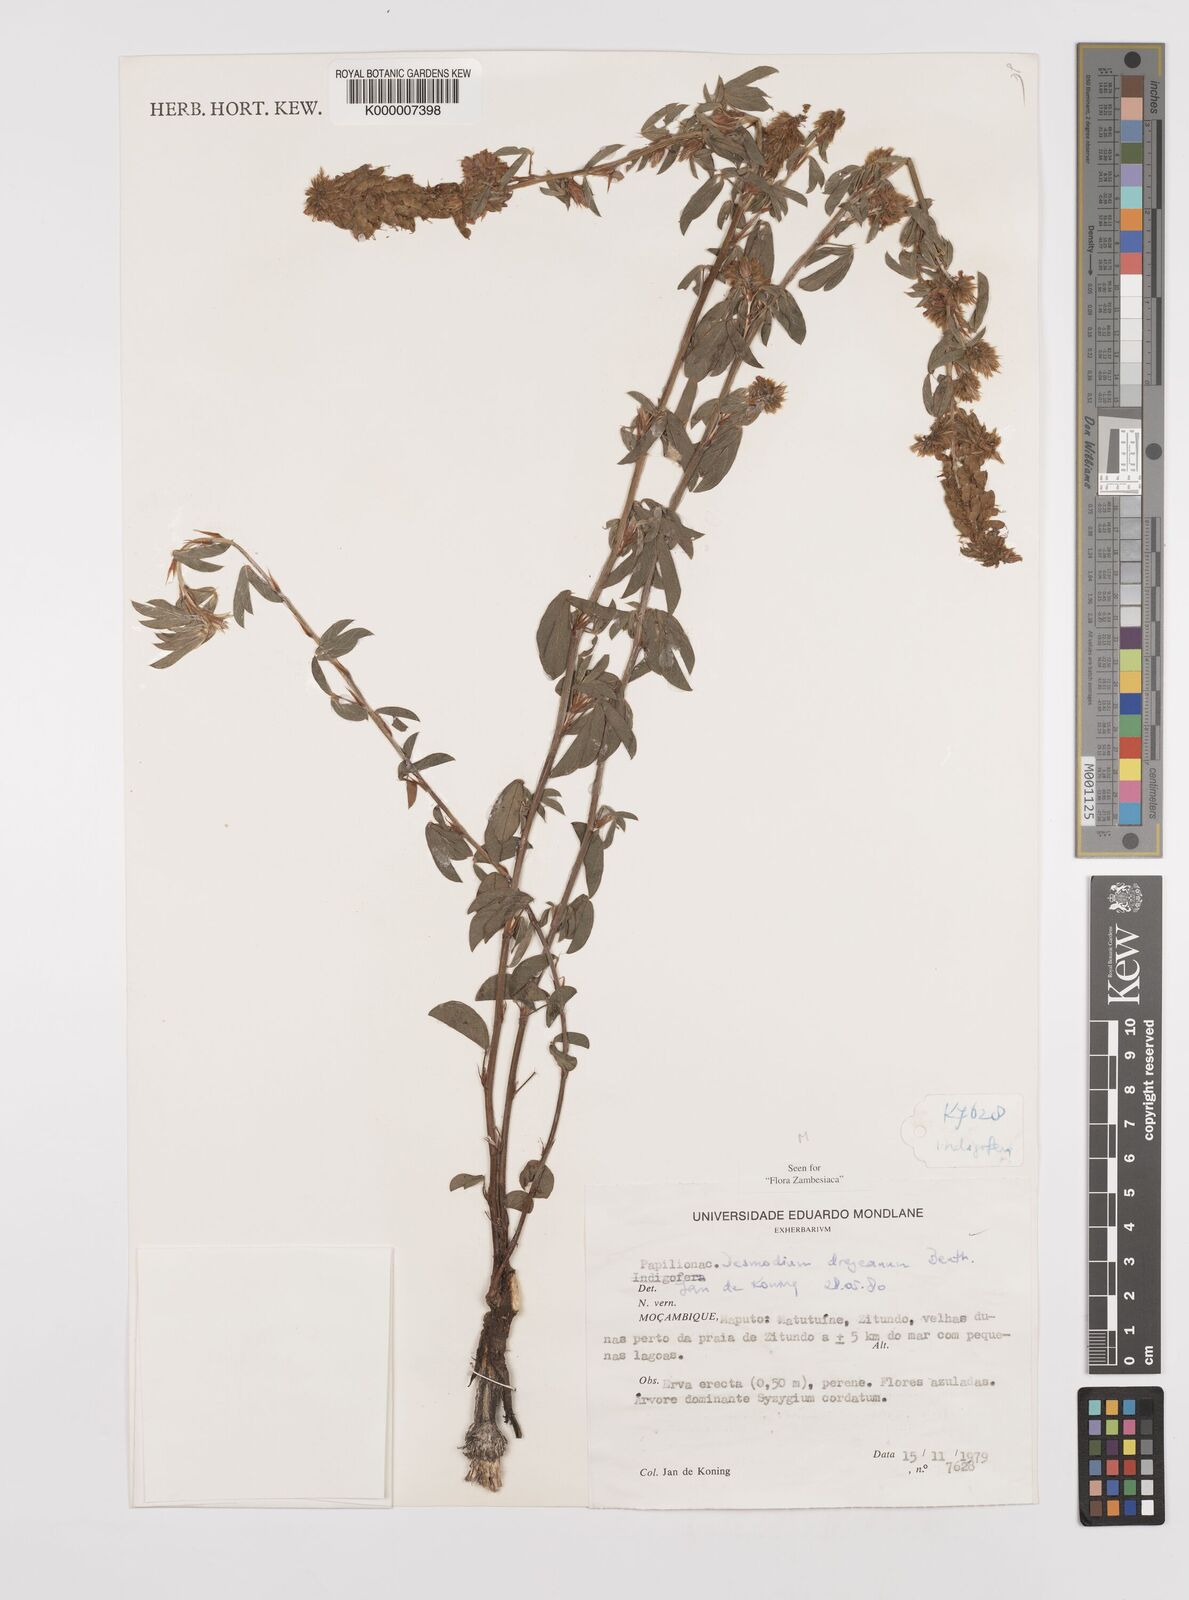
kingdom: Plantae
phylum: Tracheophyta
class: Magnoliopsida
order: Fabales
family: Fabaceae
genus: Grona
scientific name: Grona caffra
